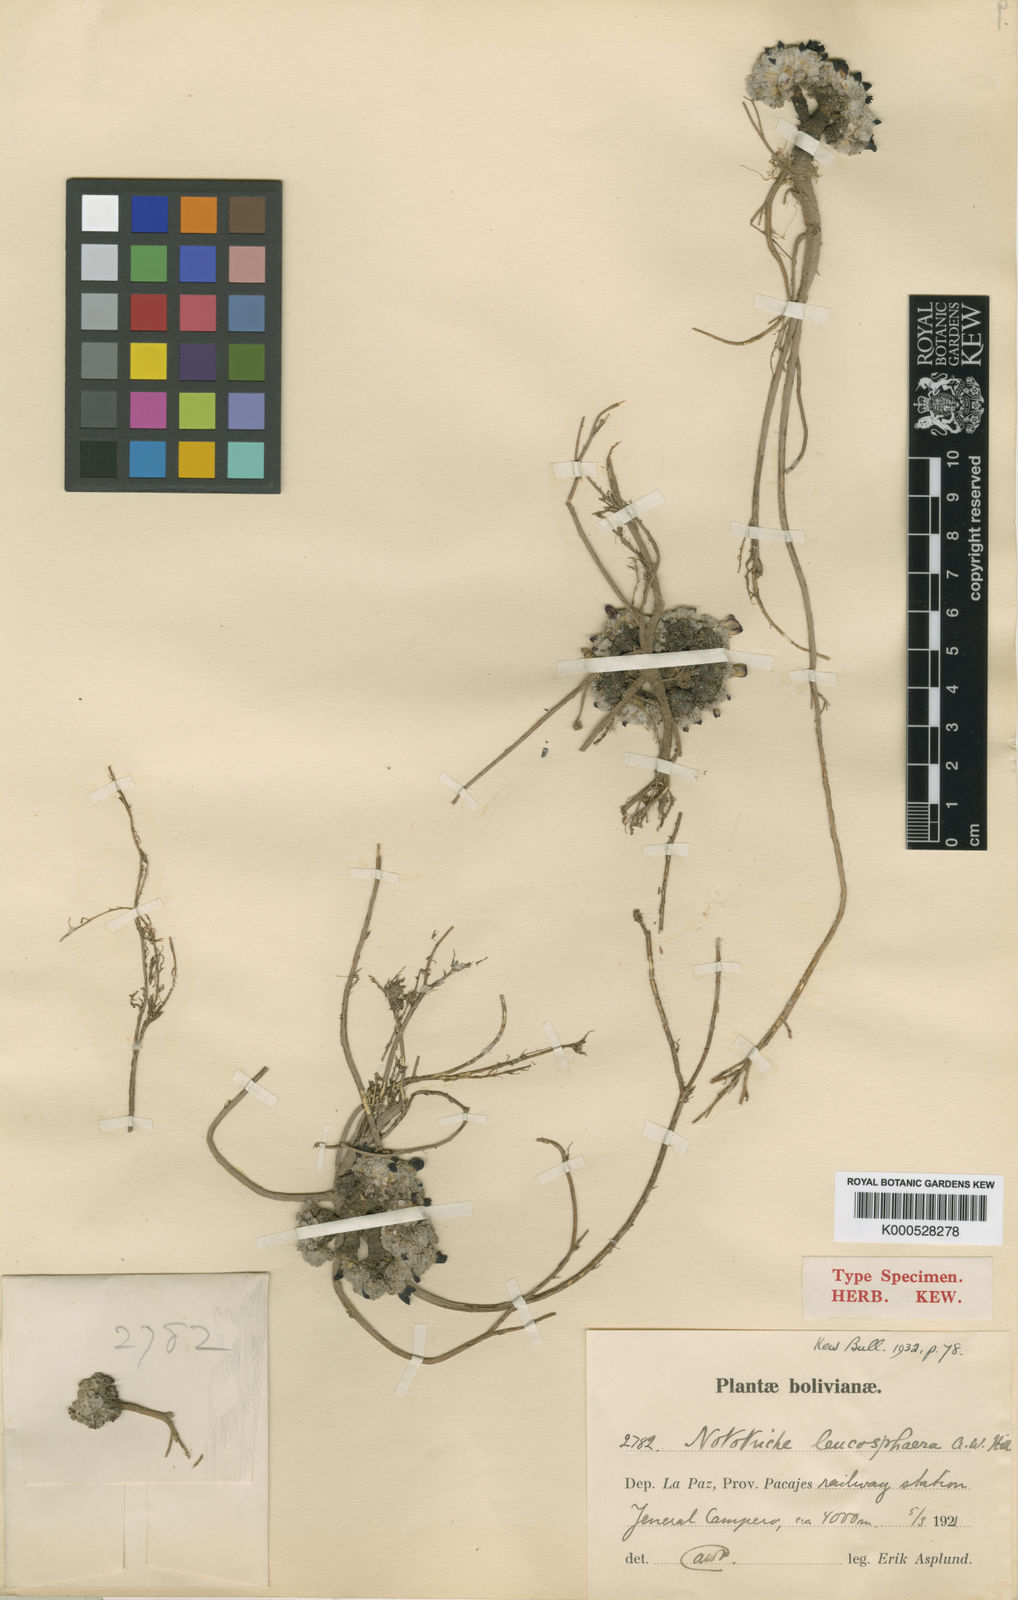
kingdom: Plantae
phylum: Tracheophyta
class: Magnoliopsida
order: Malvales
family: Malvaceae
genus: Nototriche
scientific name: Nototriche leucosphaera
